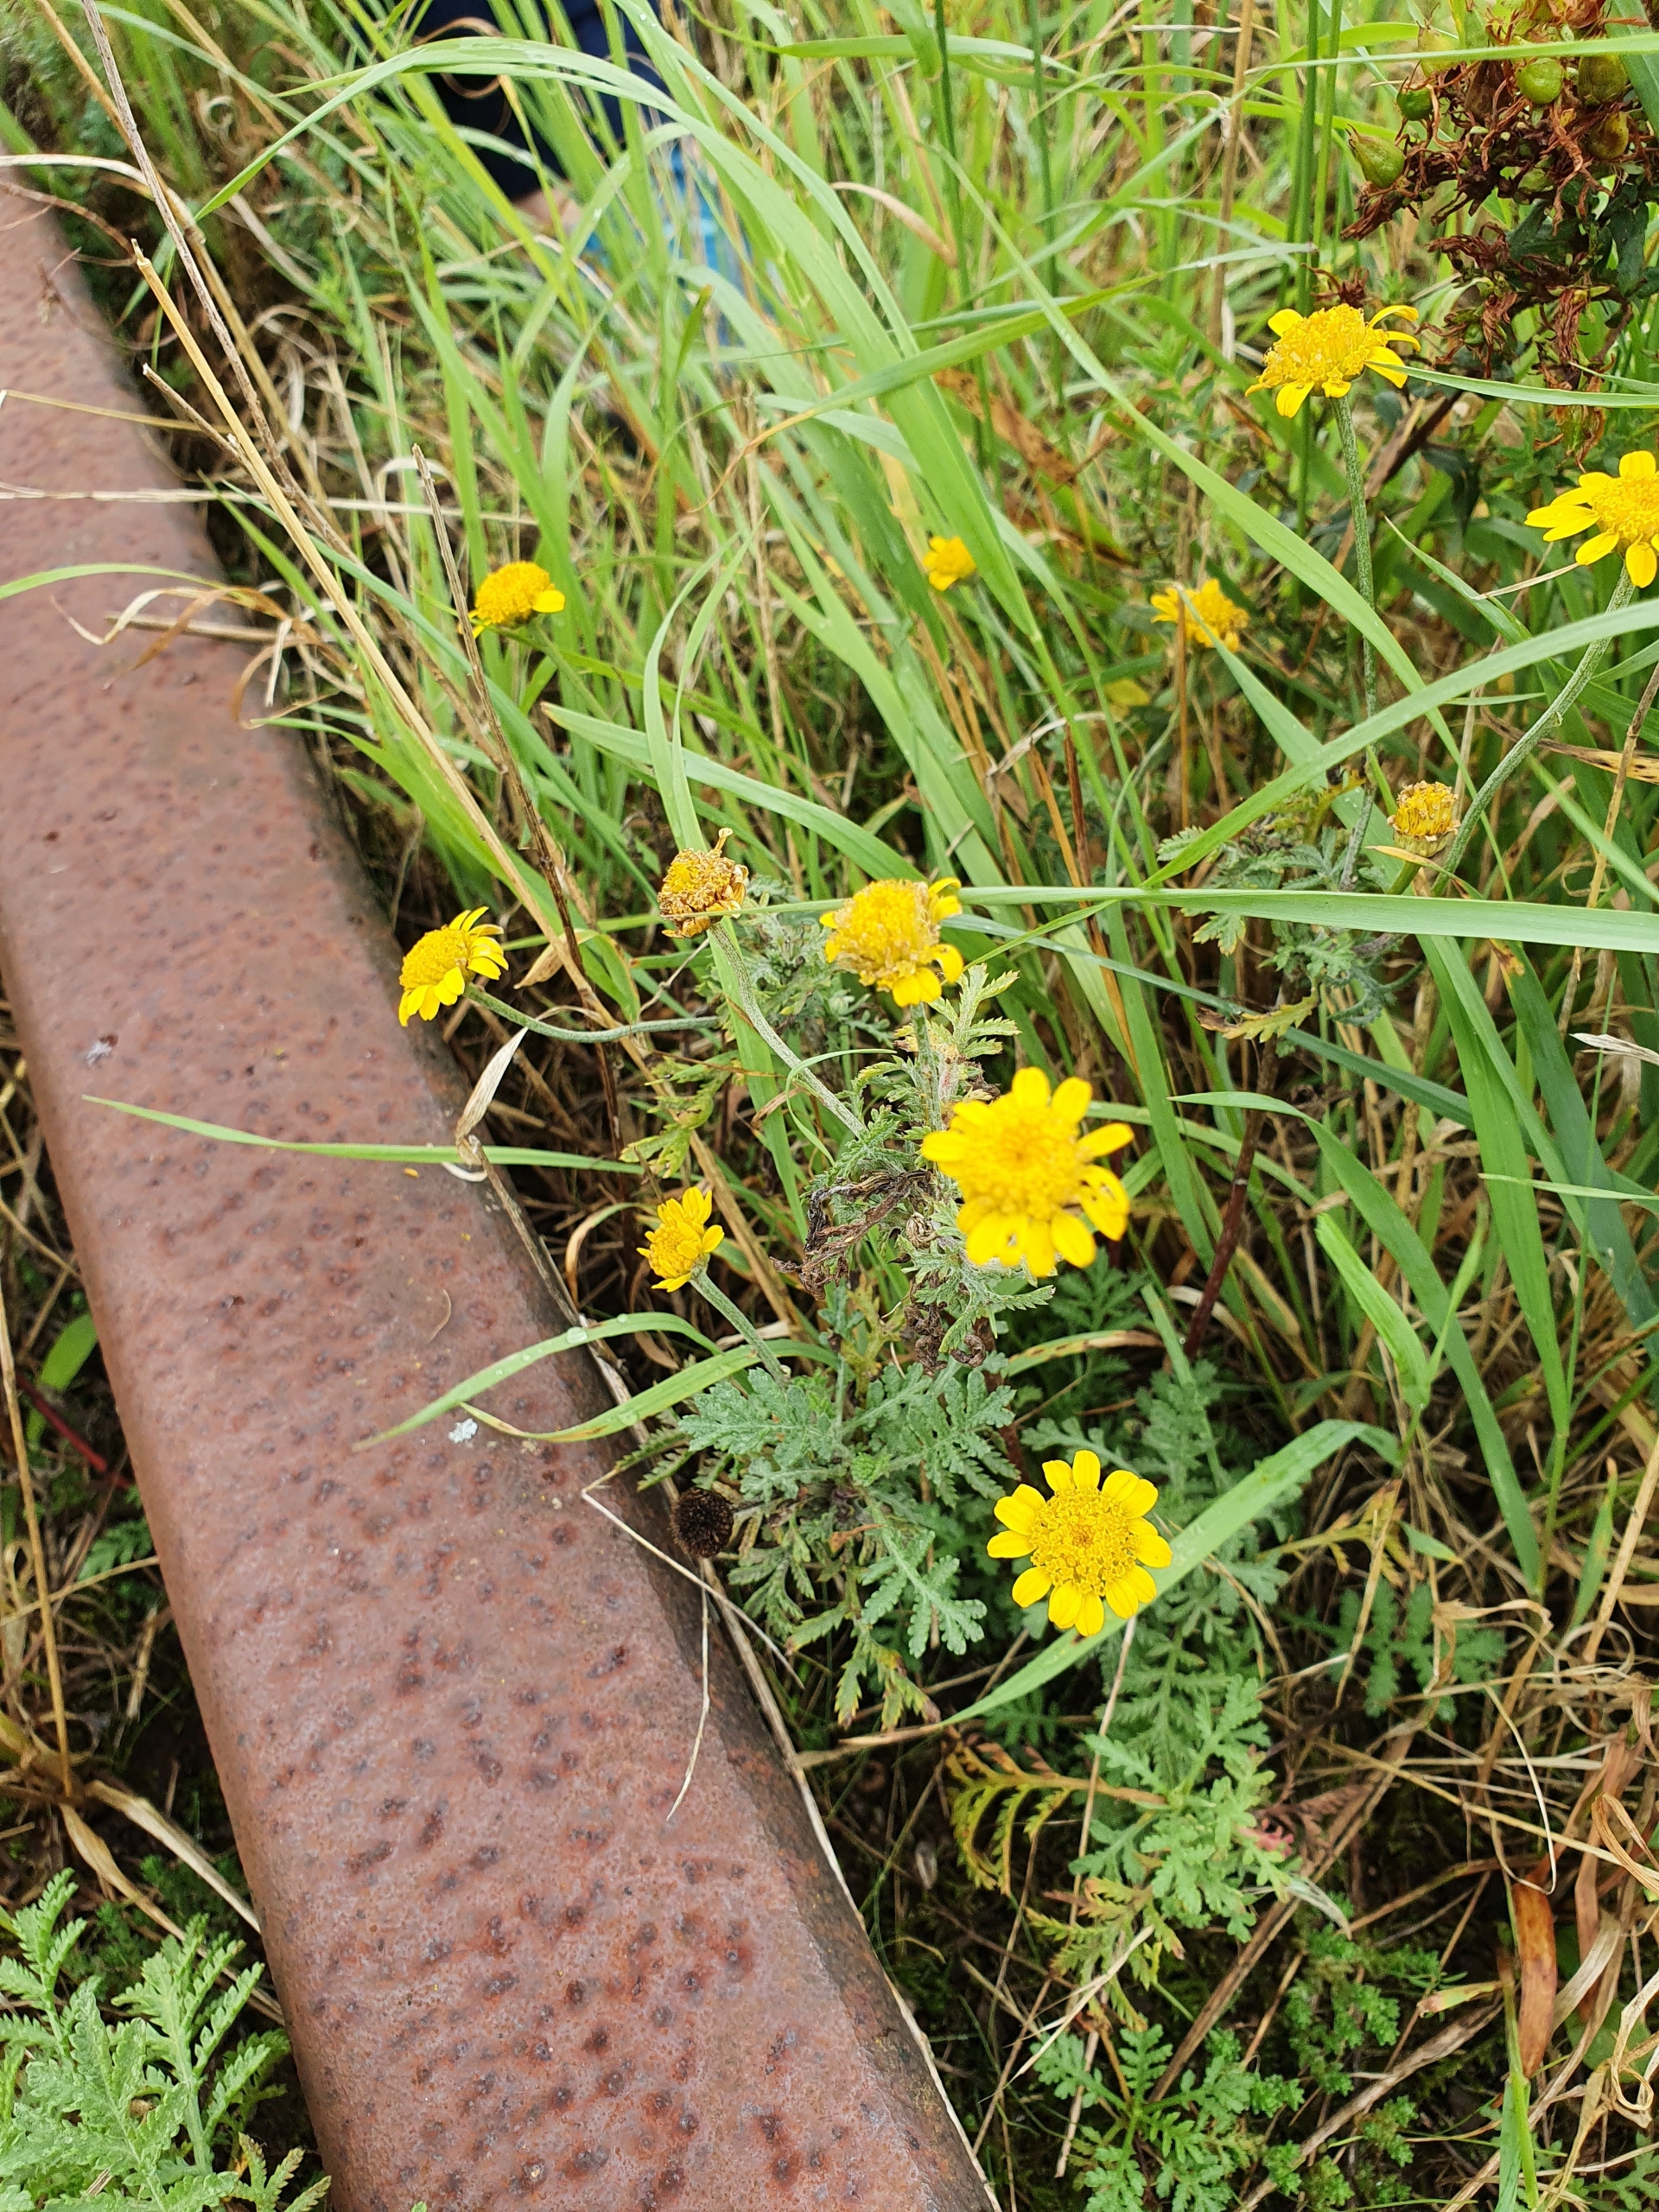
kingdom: Plantae
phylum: Tracheophyta
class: Magnoliopsida
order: Asterales
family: Asteraceae
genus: Cota
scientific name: Cota tinctoria
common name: Farve-gåseurt
